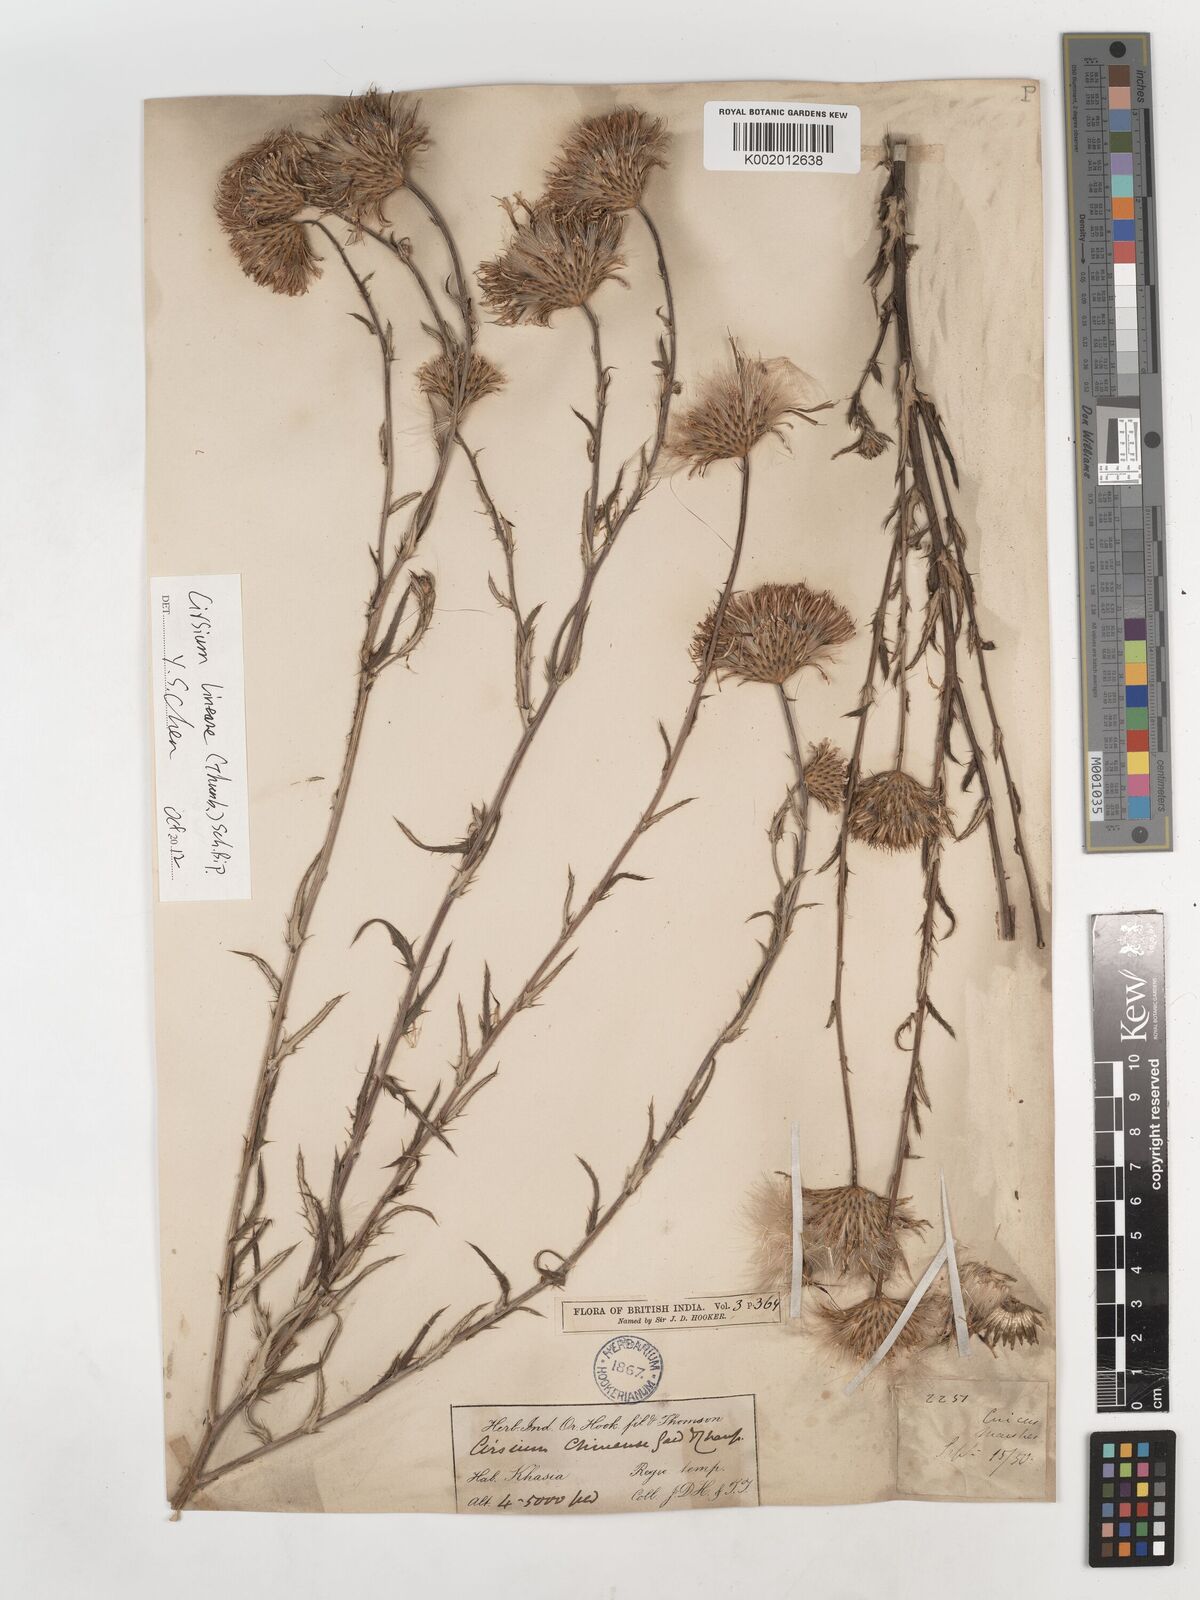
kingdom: Plantae
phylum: Tracheophyta
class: Magnoliopsida
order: Asterales
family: Asteraceae
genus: Cirsium
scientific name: Cirsium chinense
